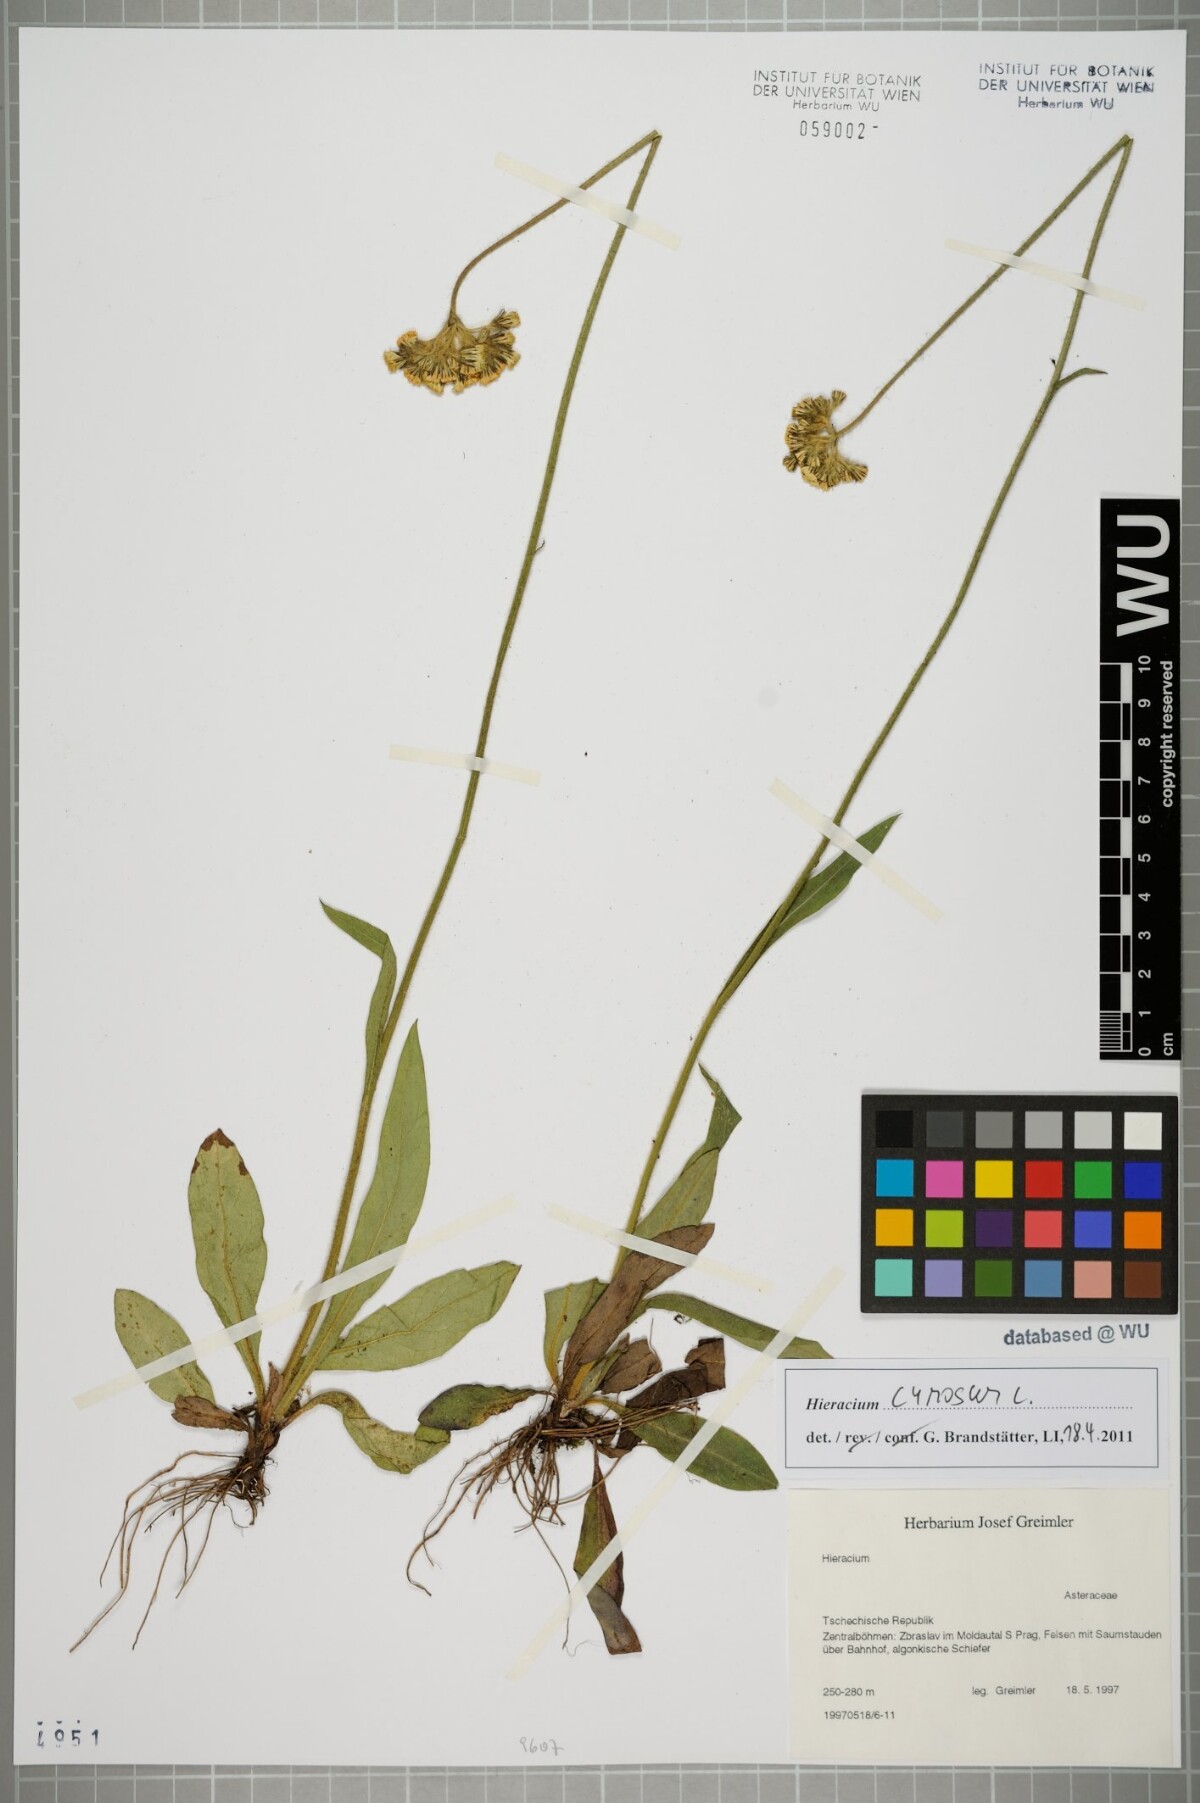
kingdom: Plantae
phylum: Tracheophyta
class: Magnoliopsida
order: Asterales
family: Asteraceae
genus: Pilosella
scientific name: Pilosella cymosa
